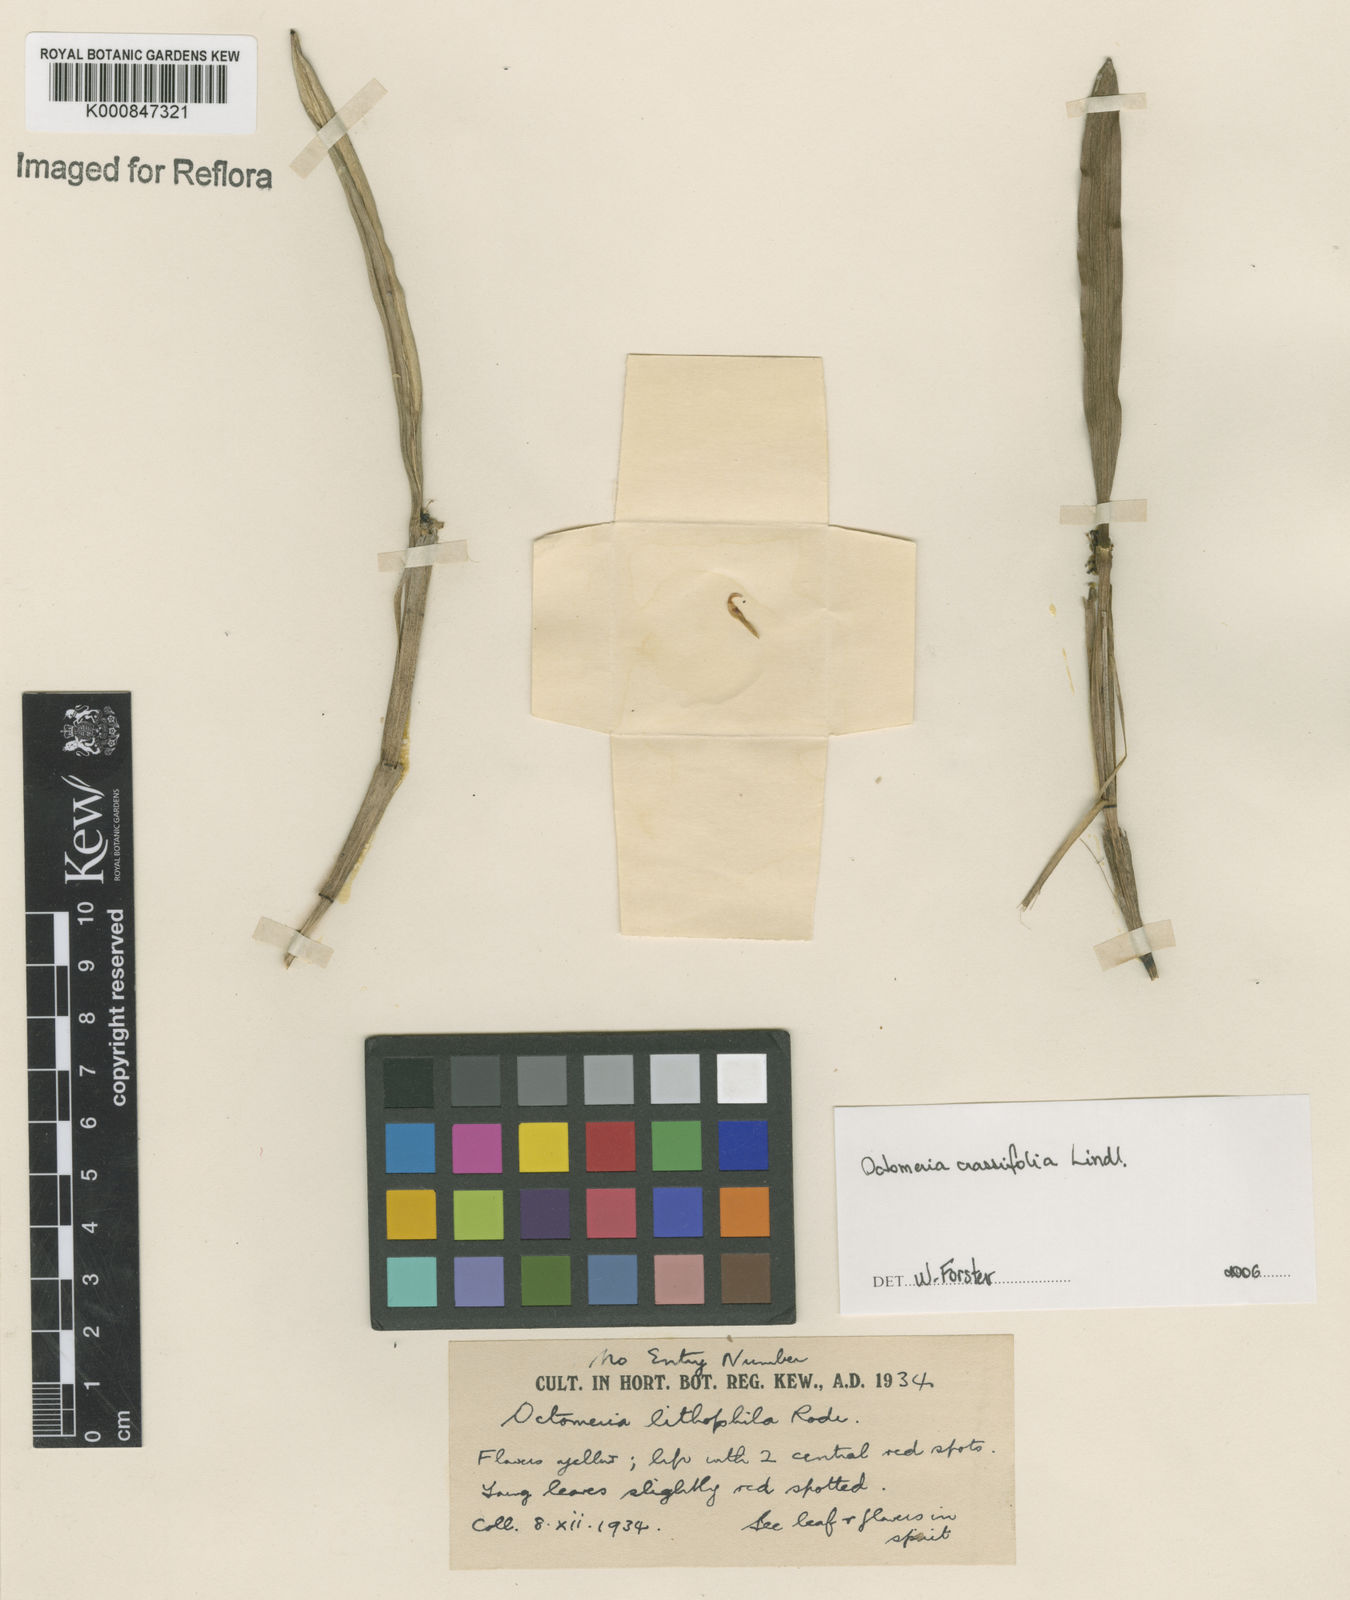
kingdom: Plantae
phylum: Tracheophyta
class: Liliopsida
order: Asparagales
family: Orchidaceae
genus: Octomeria
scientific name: Octomeria crassifolia
